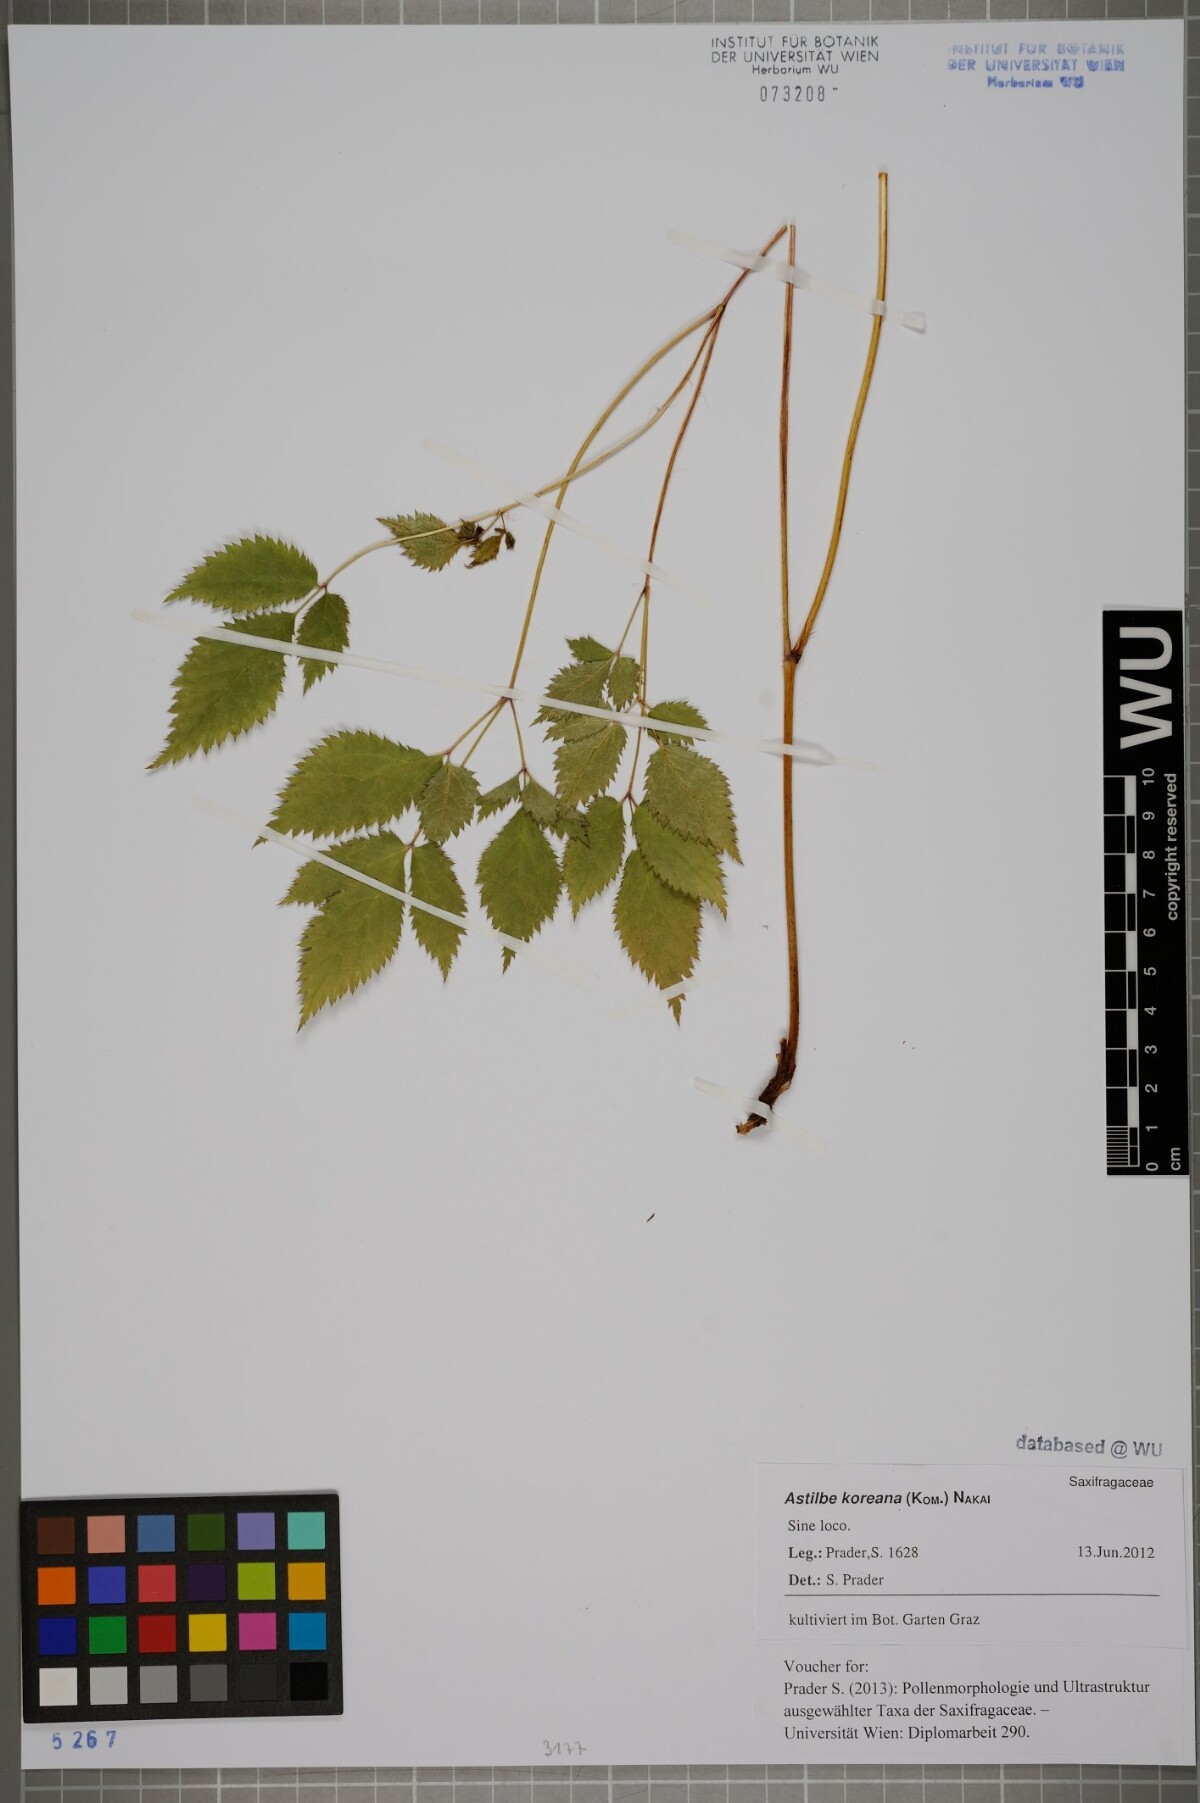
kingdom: Plantae
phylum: Tracheophyta
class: Magnoliopsida
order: Saxifragales
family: Saxifragaceae
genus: Astilbe
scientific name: Astilbe grandis
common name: Korean astilbe
